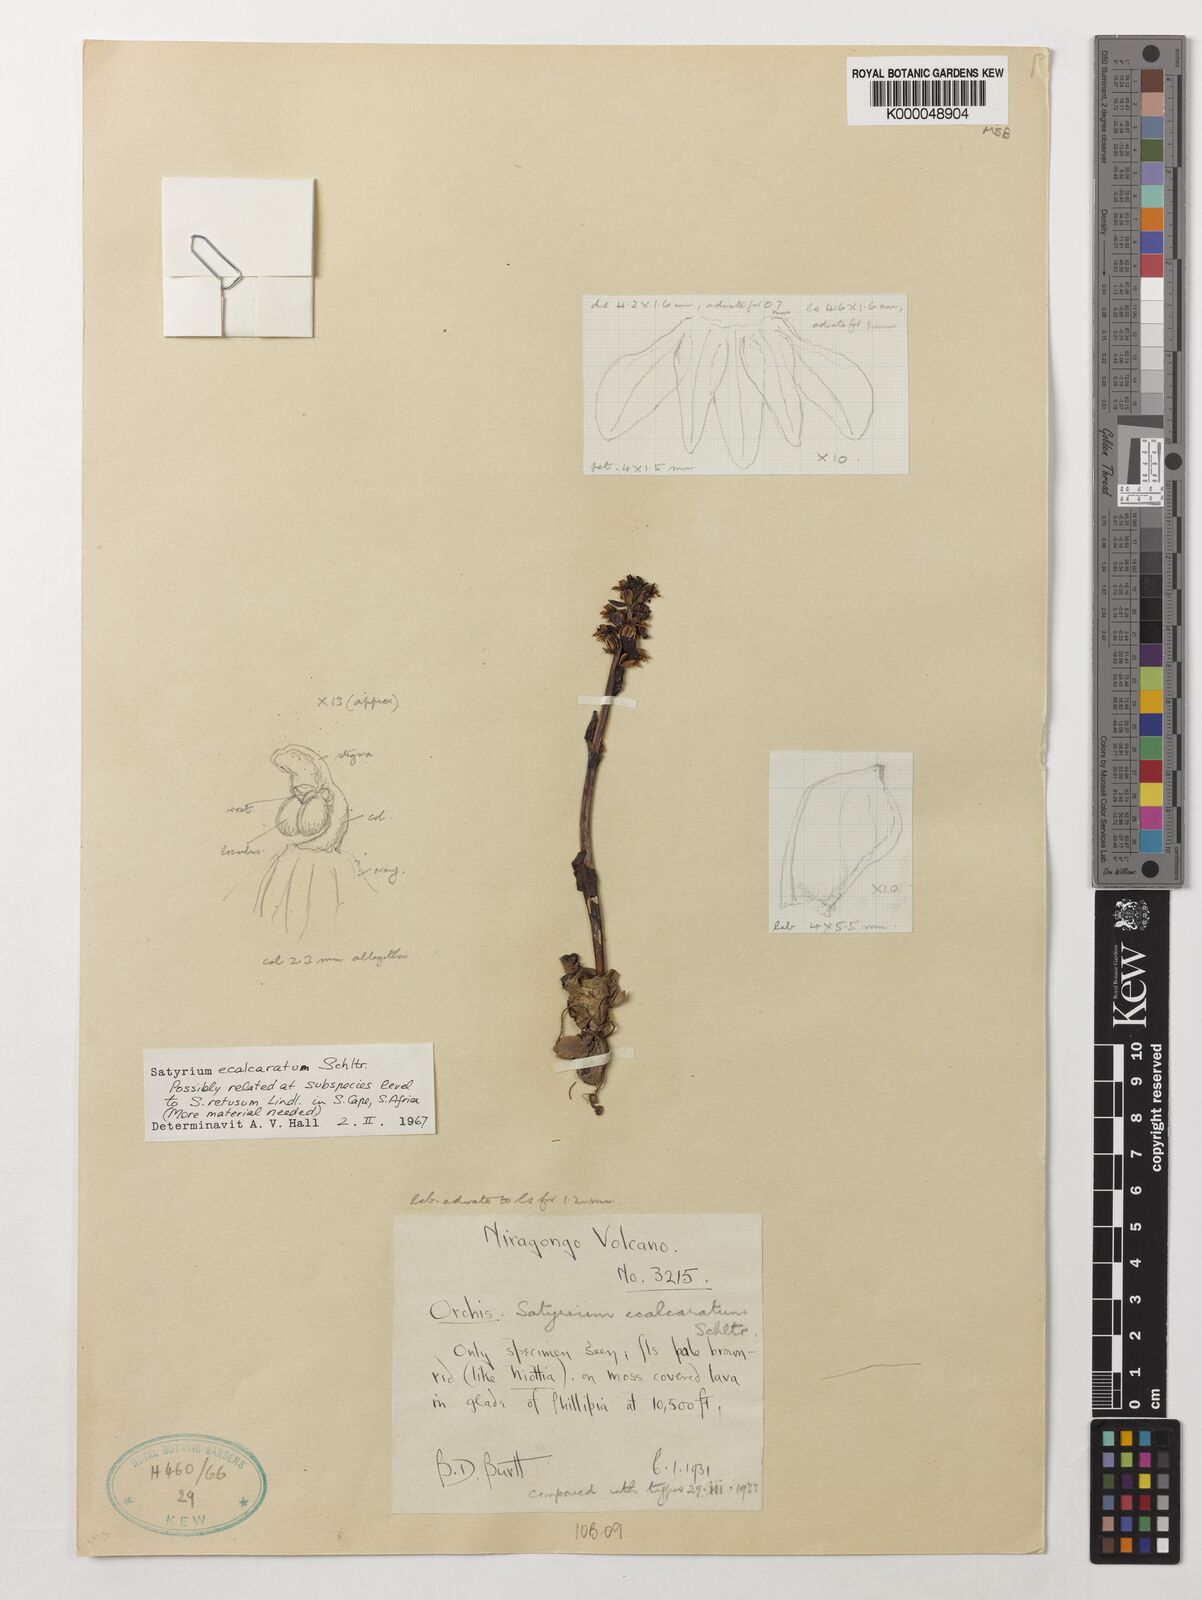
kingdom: Plantae
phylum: Tracheophyta
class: Liliopsida
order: Asparagales
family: Orchidaceae
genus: Satyrium
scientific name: Satyrium ecalcaratum
